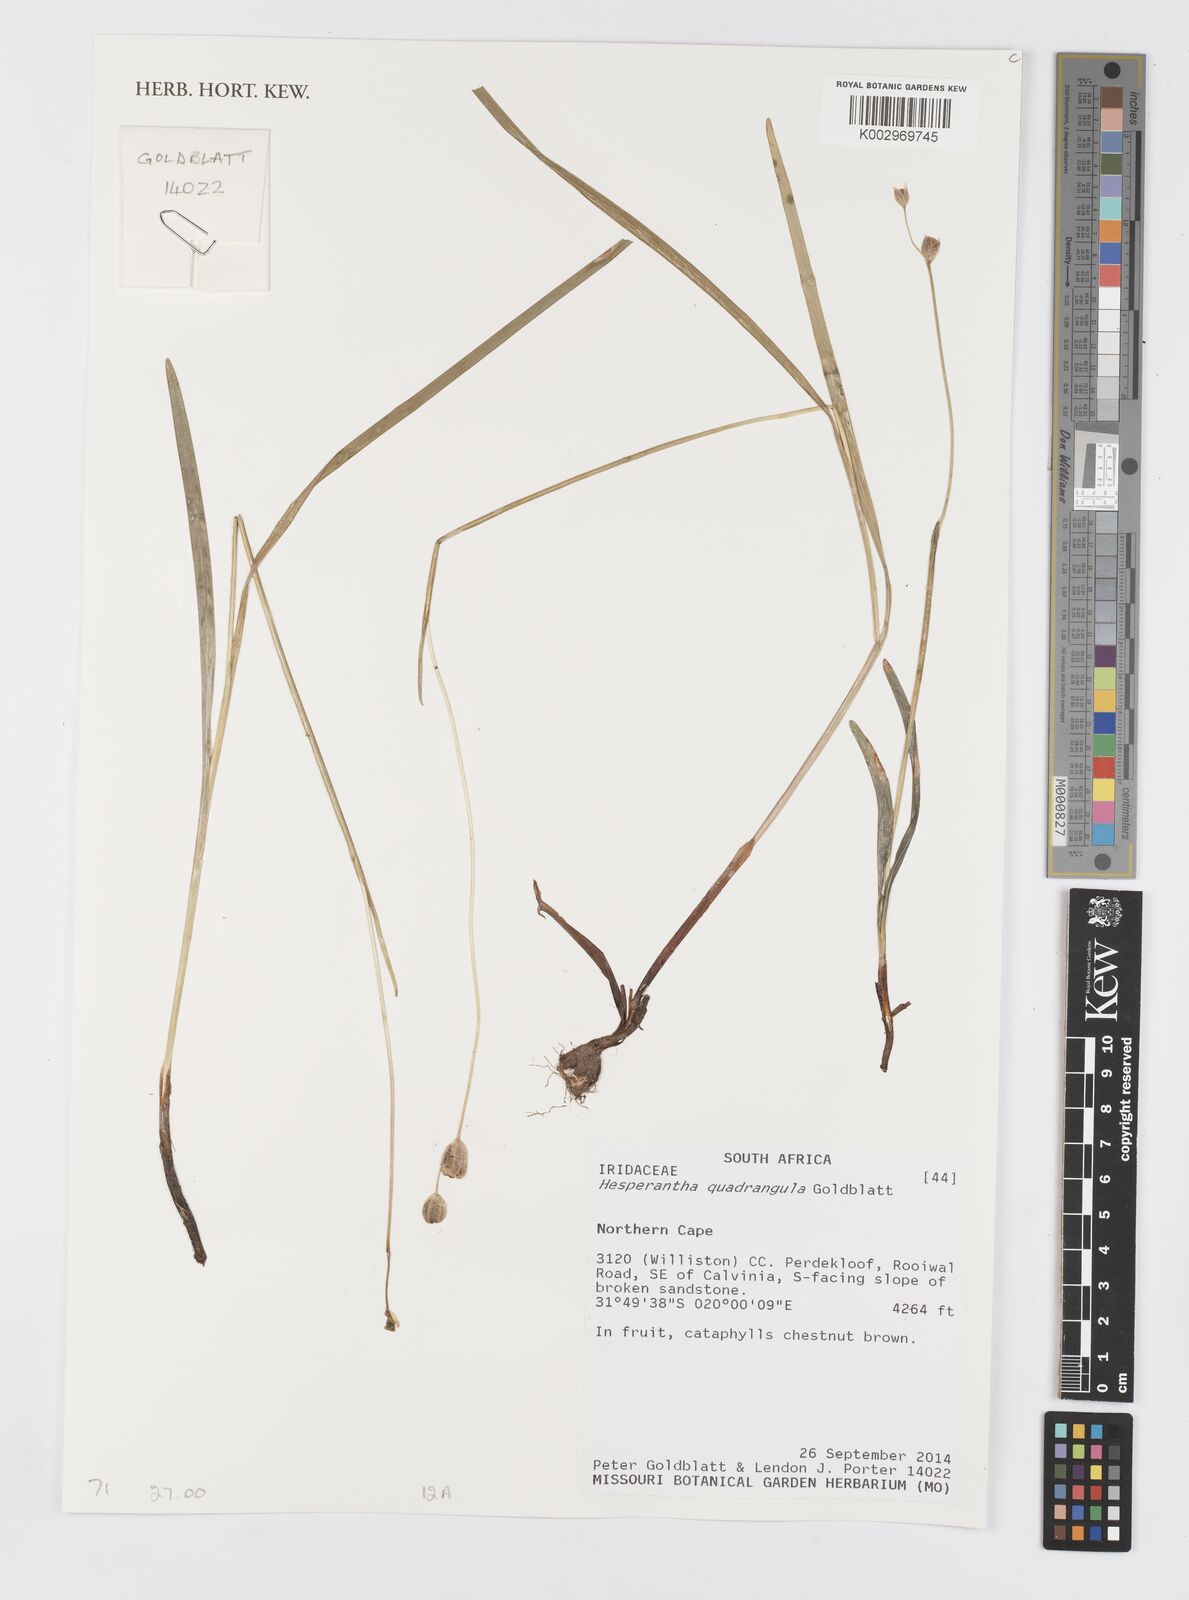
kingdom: Plantae
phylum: Tracheophyta
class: Liliopsida
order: Asparagales
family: Iridaceae
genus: Hesperantha
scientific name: Hesperantha quadrangula
